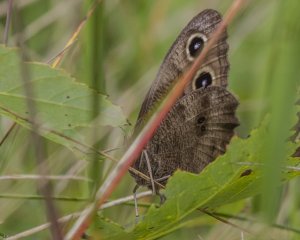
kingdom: Animalia
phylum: Arthropoda
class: Insecta
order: Lepidoptera
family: Nymphalidae
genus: Cercyonis
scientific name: Cercyonis pegala
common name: Common Wood-Nymph
